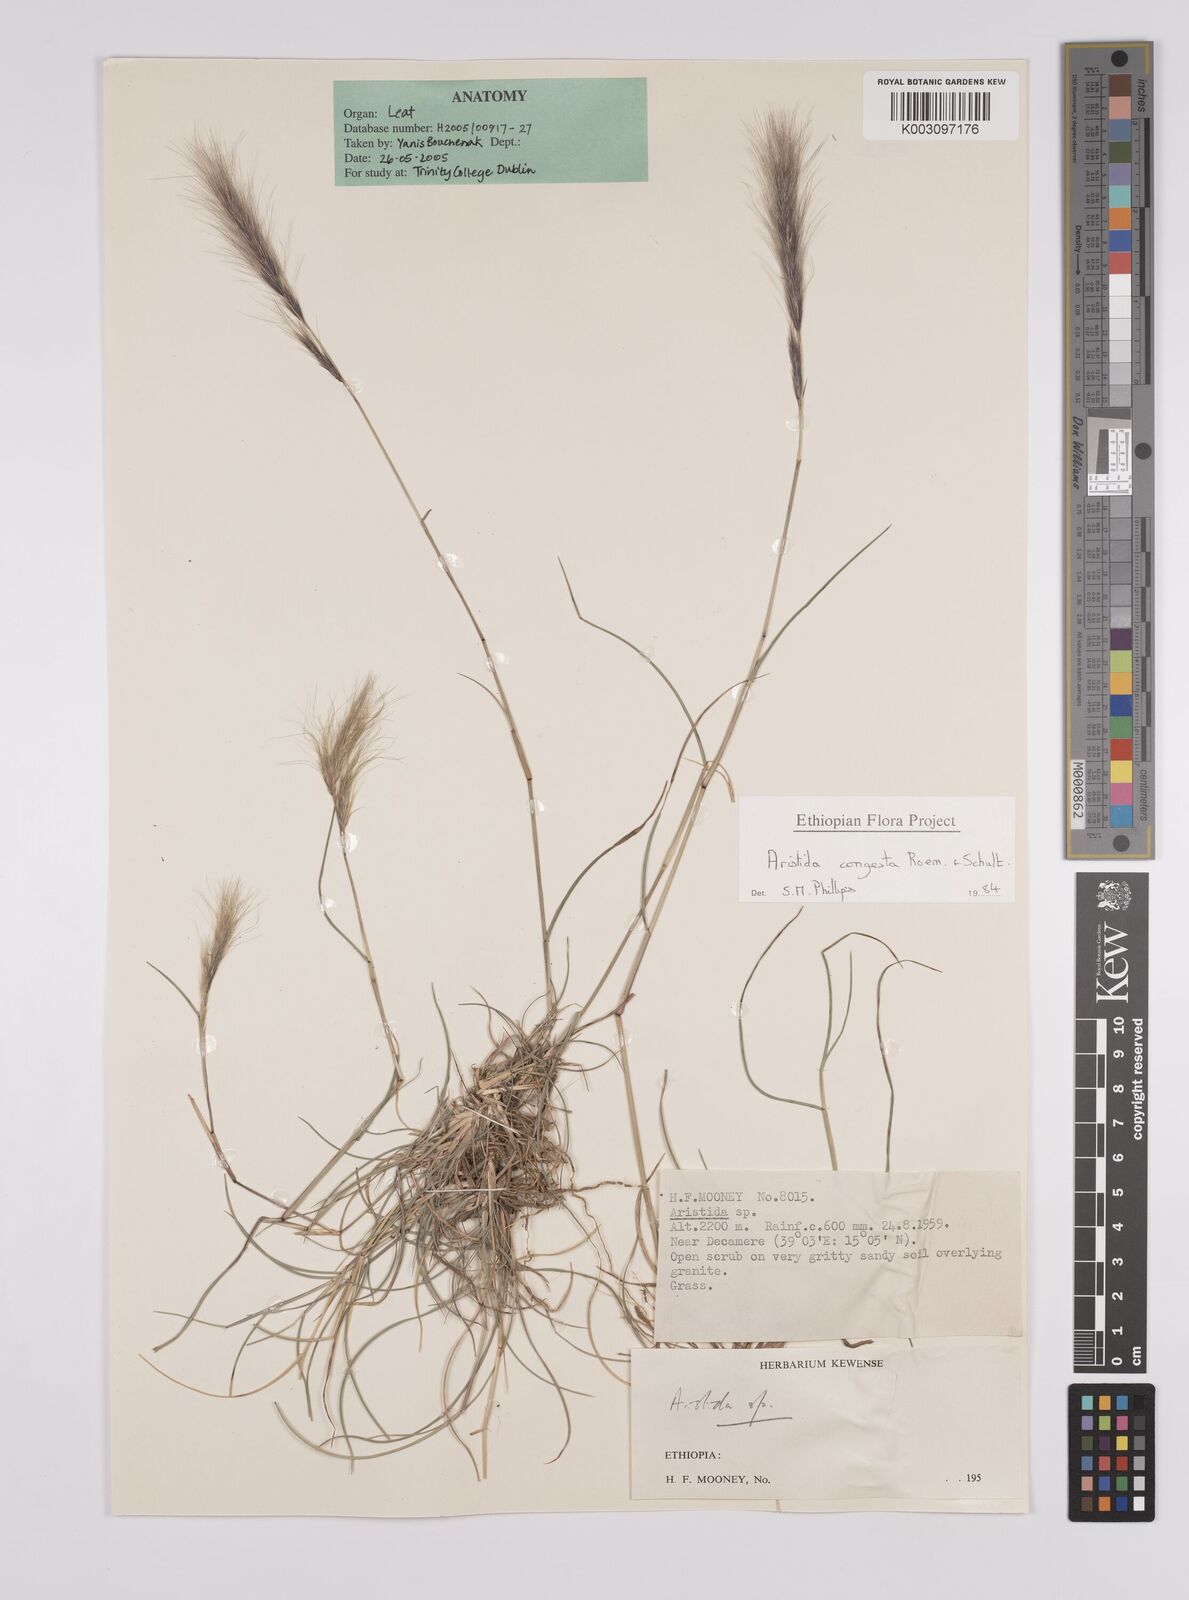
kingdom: Plantae
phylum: Tracheophyta
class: Liliopsida
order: Poales
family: Poaceae
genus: Aristida
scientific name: Aristida congesta
